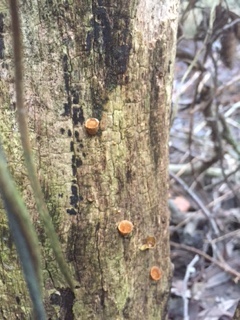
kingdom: Fungi
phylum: Basidiomycota
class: Agaricomycetes
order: Agaricales
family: Nidulariaceae
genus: Crucibulum
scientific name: Crucibulum crucibuliforme
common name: krukkesvamp
